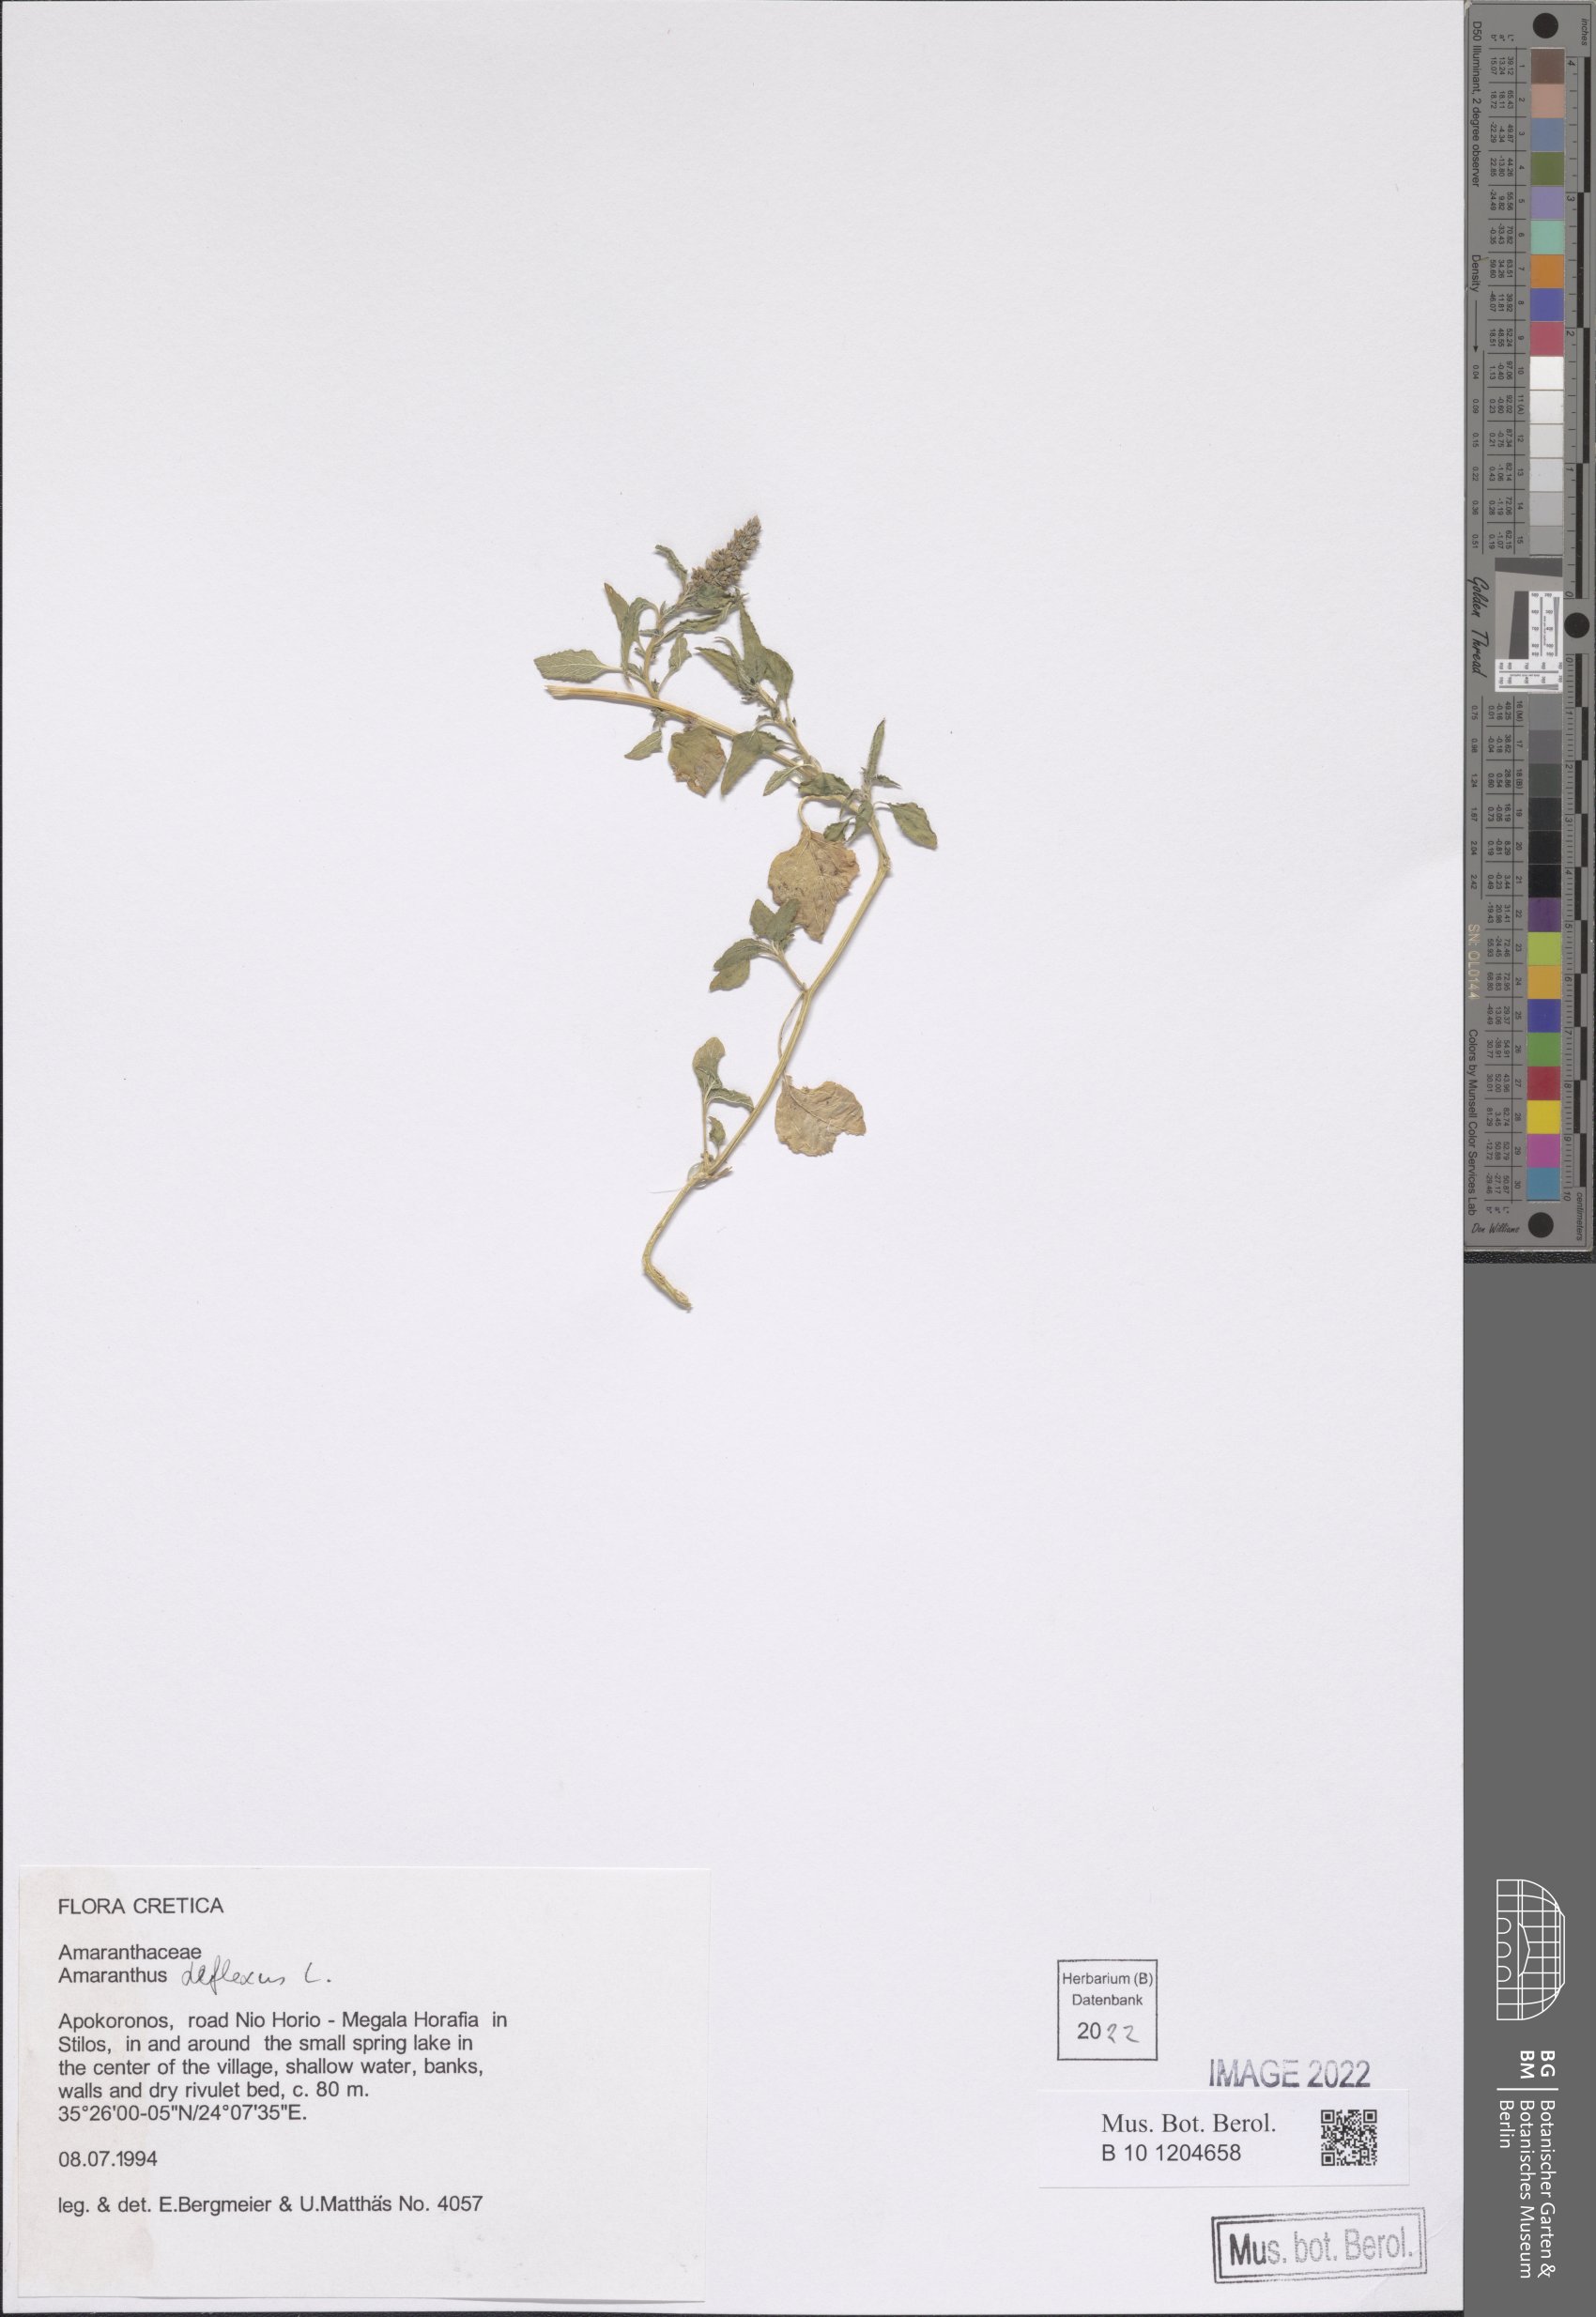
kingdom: Plantae
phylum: Tracheophyta
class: Magnoliopsida
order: Caryophyllales
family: Amaranthaceae
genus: Amaranthus
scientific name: Amaranthus deflexus
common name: Perennial pigweed
